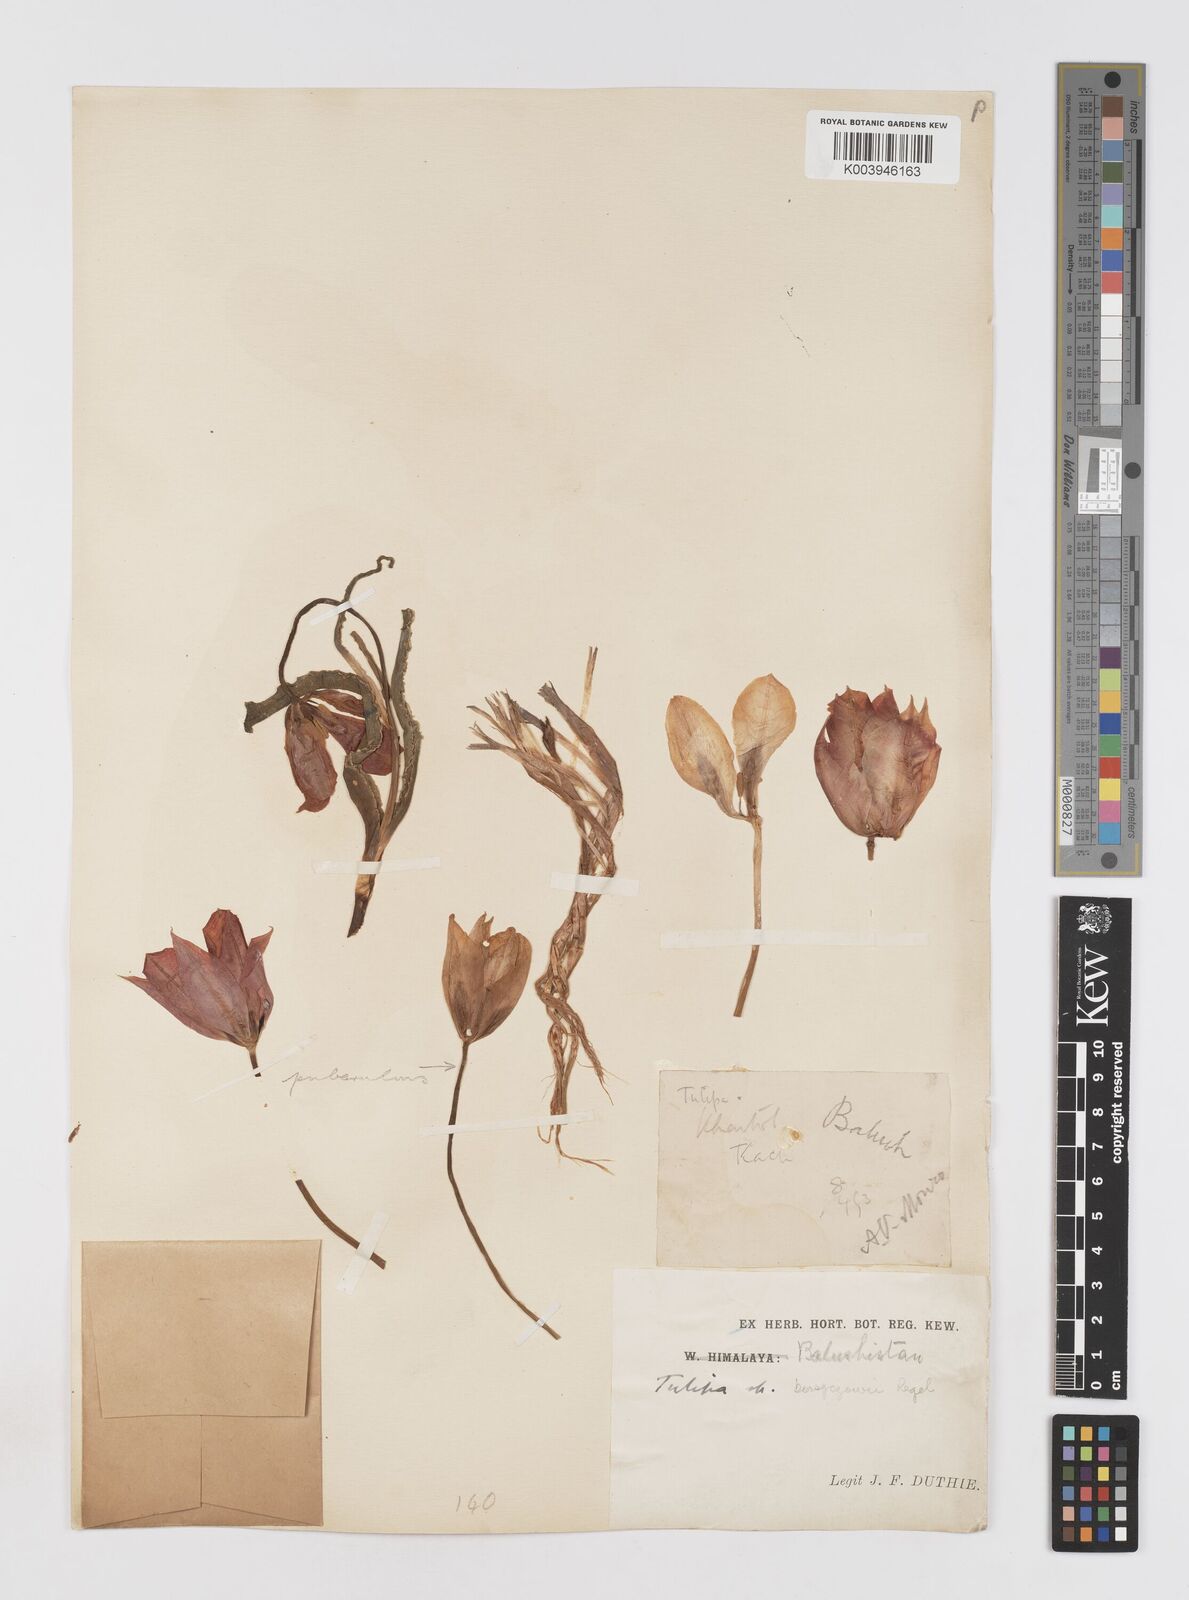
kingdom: Plantae
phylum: Tracheophyta
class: Liliopsida
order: Liliales
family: Liliaceae
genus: Tulipa
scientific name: Tulipa borszczowii
